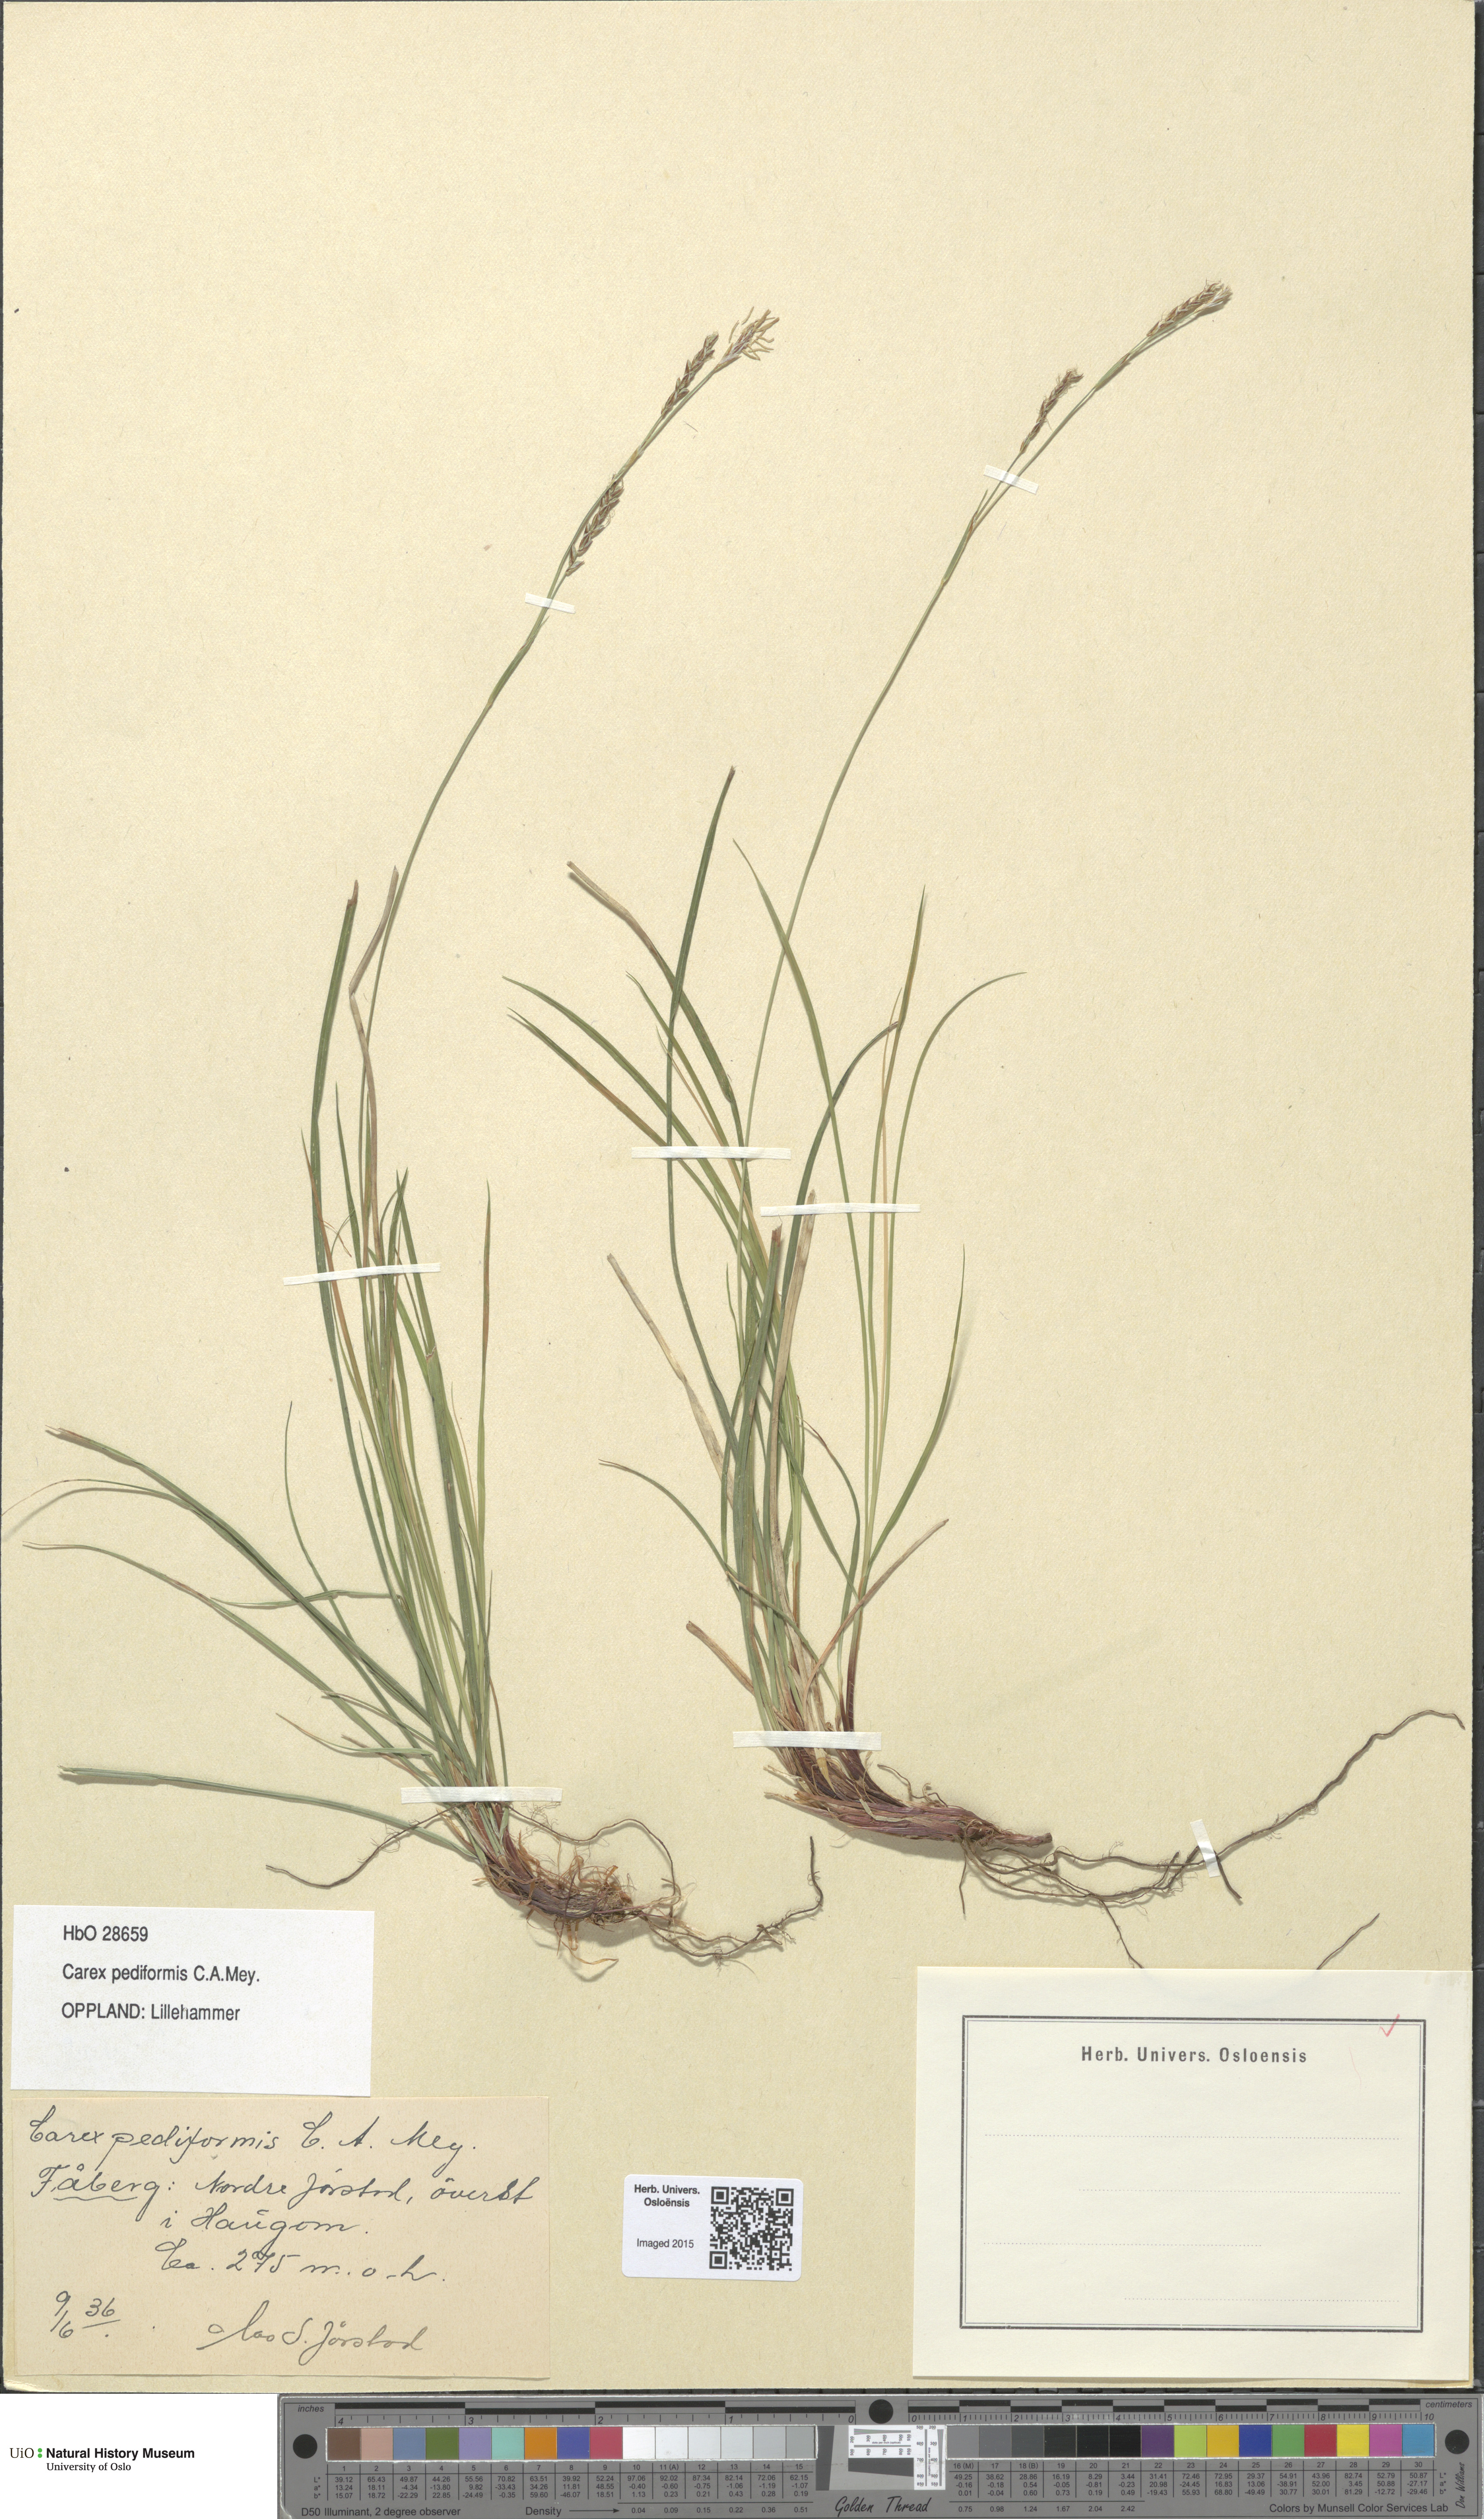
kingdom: Plantae
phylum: Tracheophyta
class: Liliopsida
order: Poales
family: Cyperaceae
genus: Carex
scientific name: Carex rhizina
